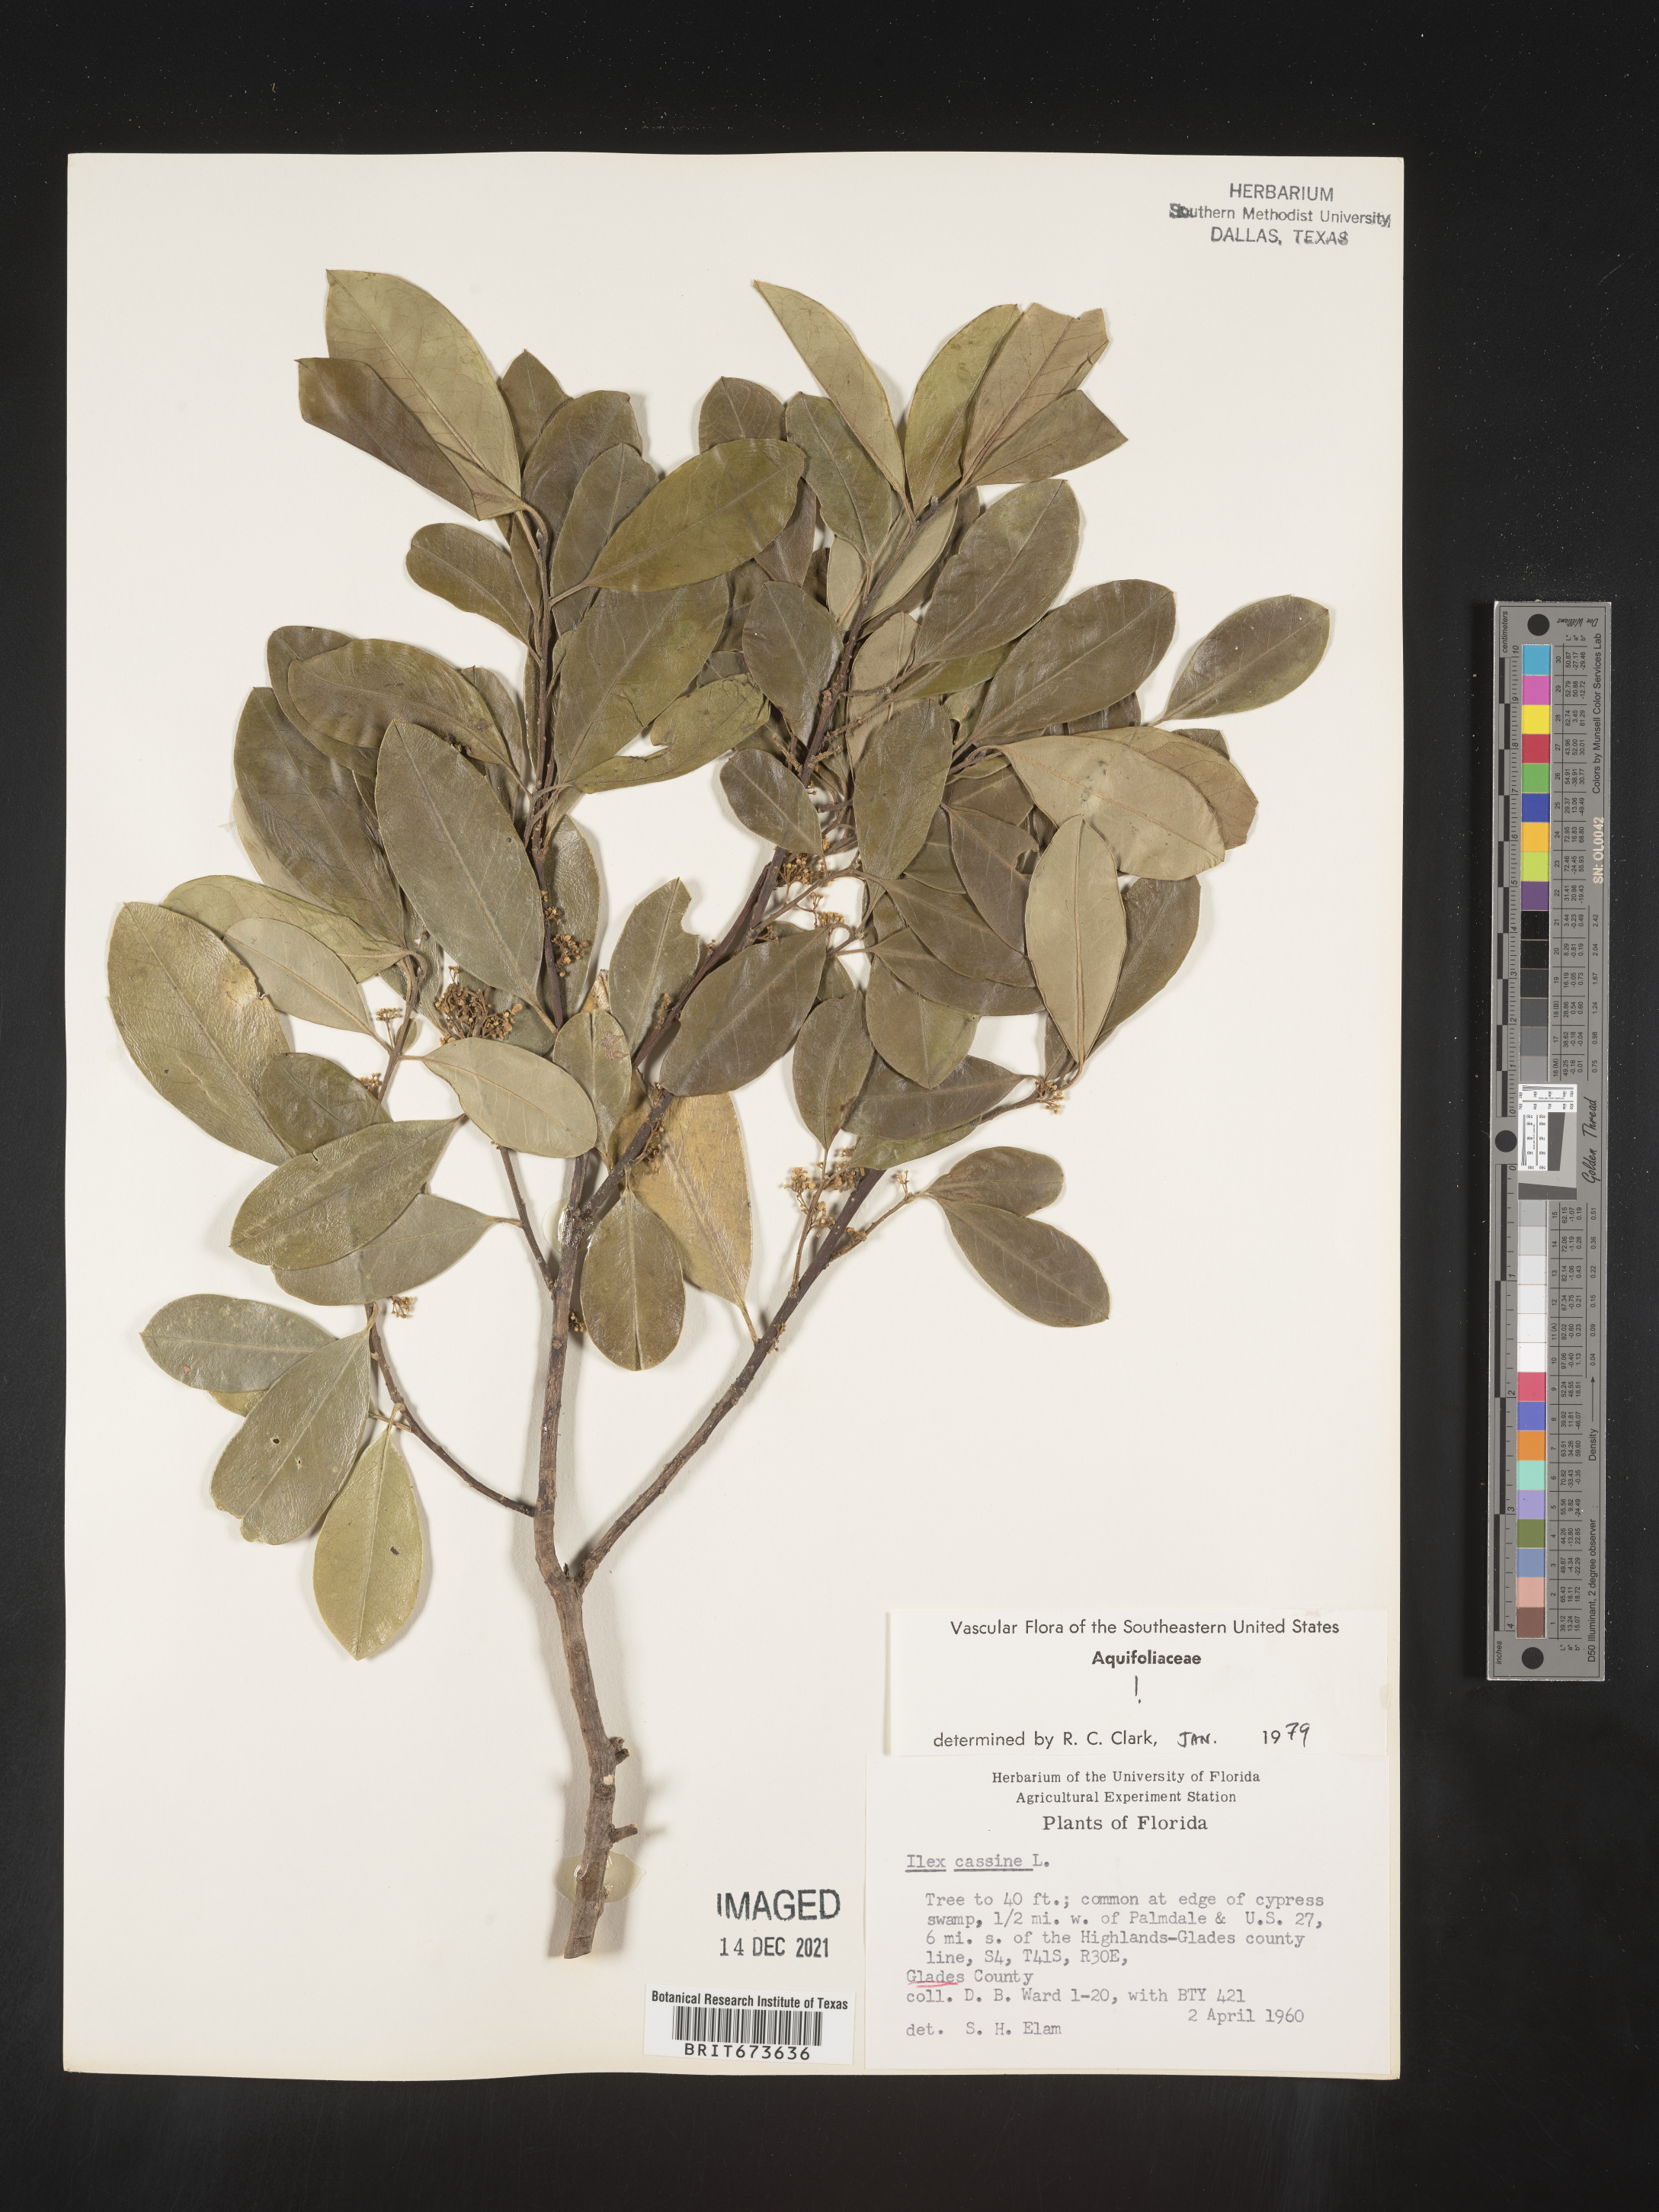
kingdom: Plantae
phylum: Tracheophyta
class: Magnoliopsida
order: Aquifoliales
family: Aquifoliaceae
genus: Ilex
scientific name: Ilex cassine
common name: Dahoon
